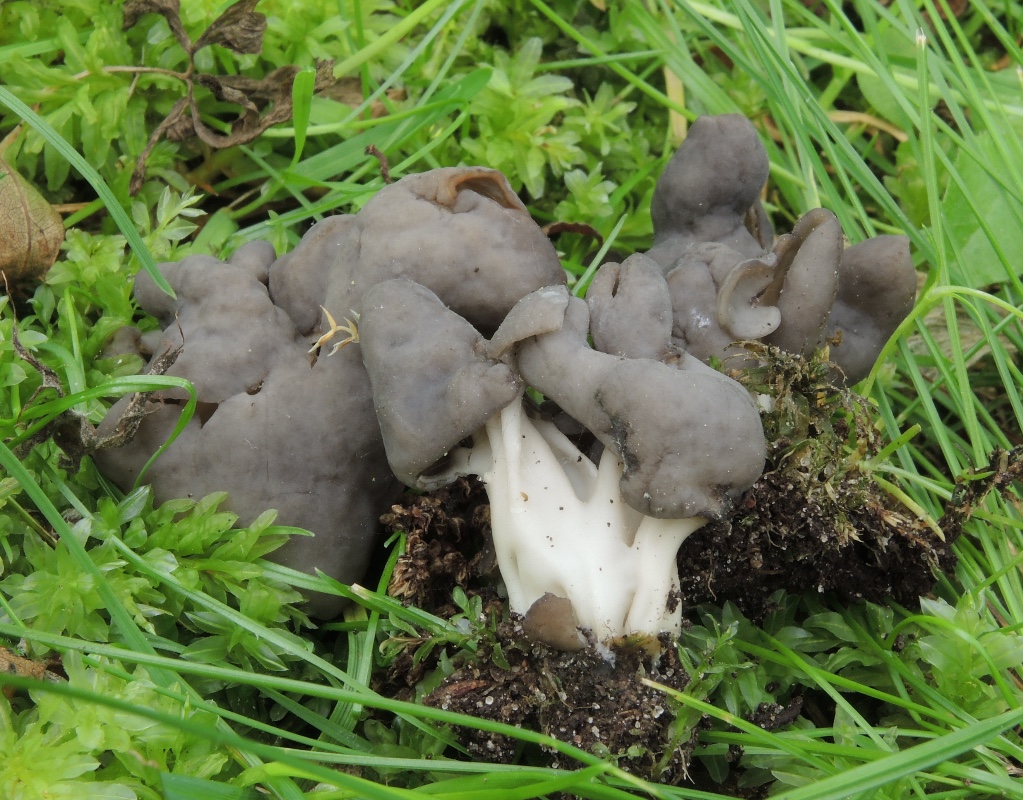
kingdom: Fungi
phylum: Ascomycota
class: Pezizomycetes
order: Pezizales
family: Helvellaceae
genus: Helvella
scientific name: Helvella lacunosa
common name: grubet foldhat
